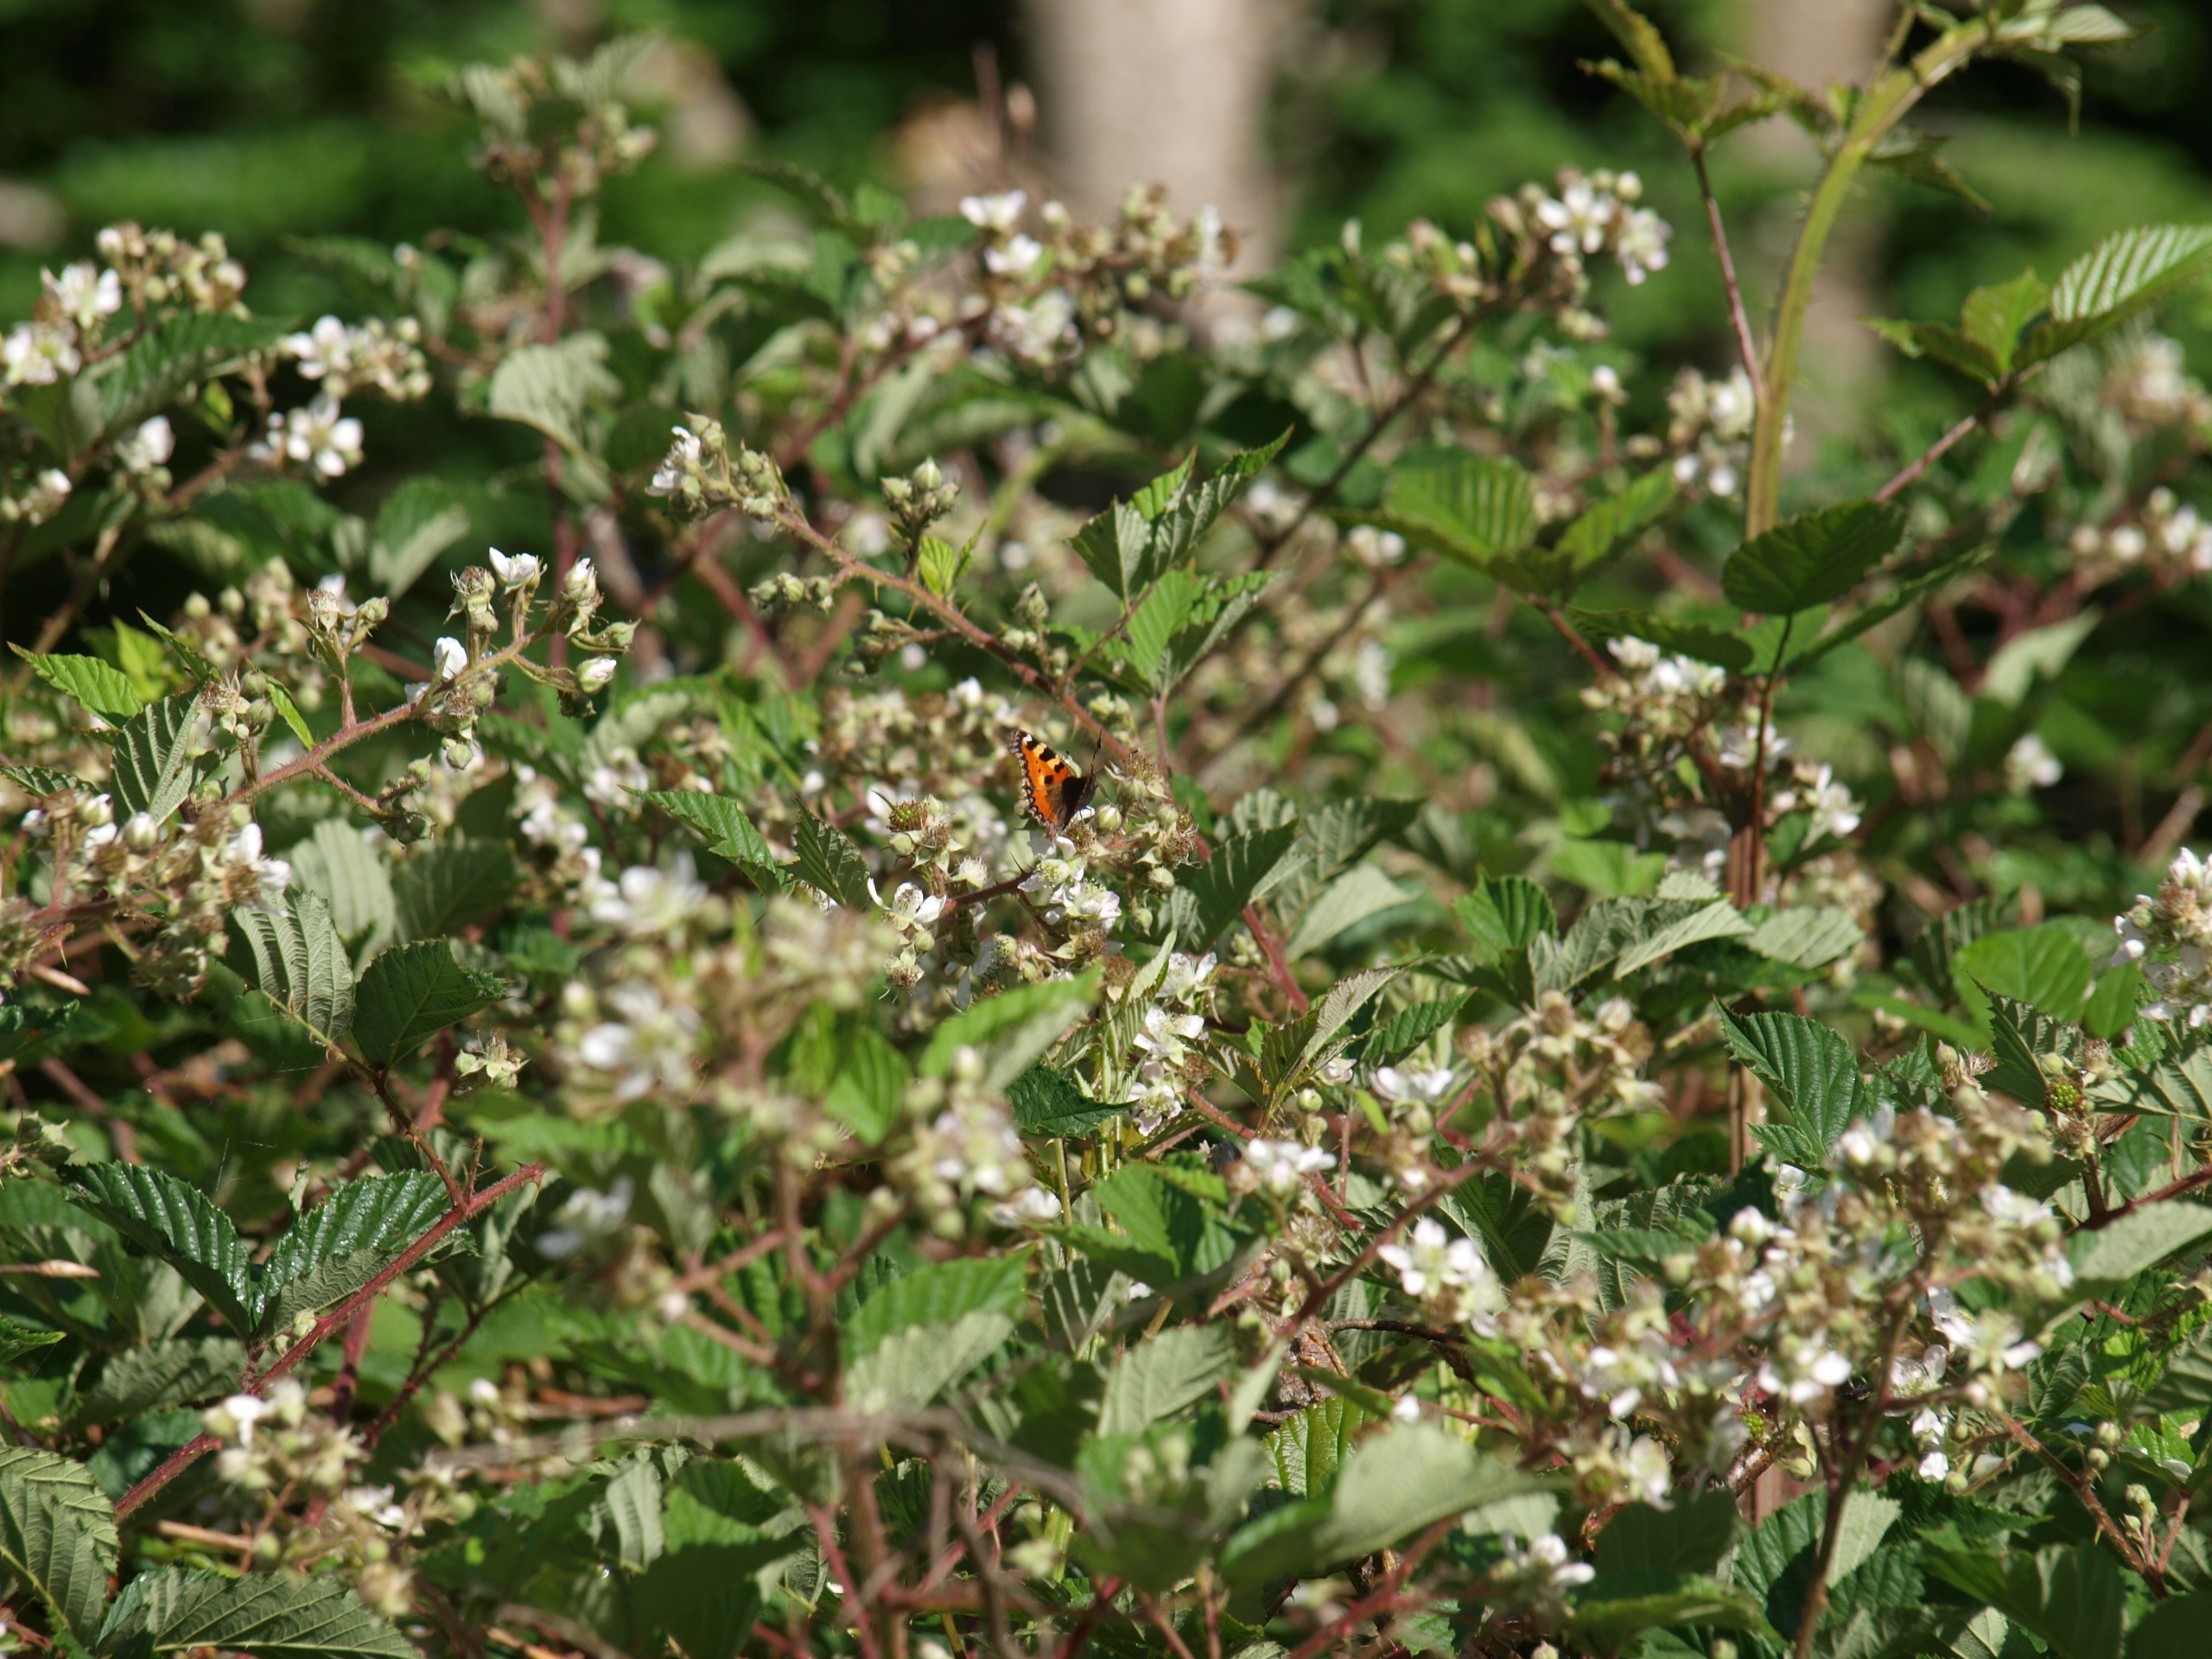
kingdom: Animalia
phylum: Arthropoda
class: Insecta
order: Lepidoptera
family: Nymphalidae
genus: Aglais
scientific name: Aglais urticae
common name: Nældens takvinge
